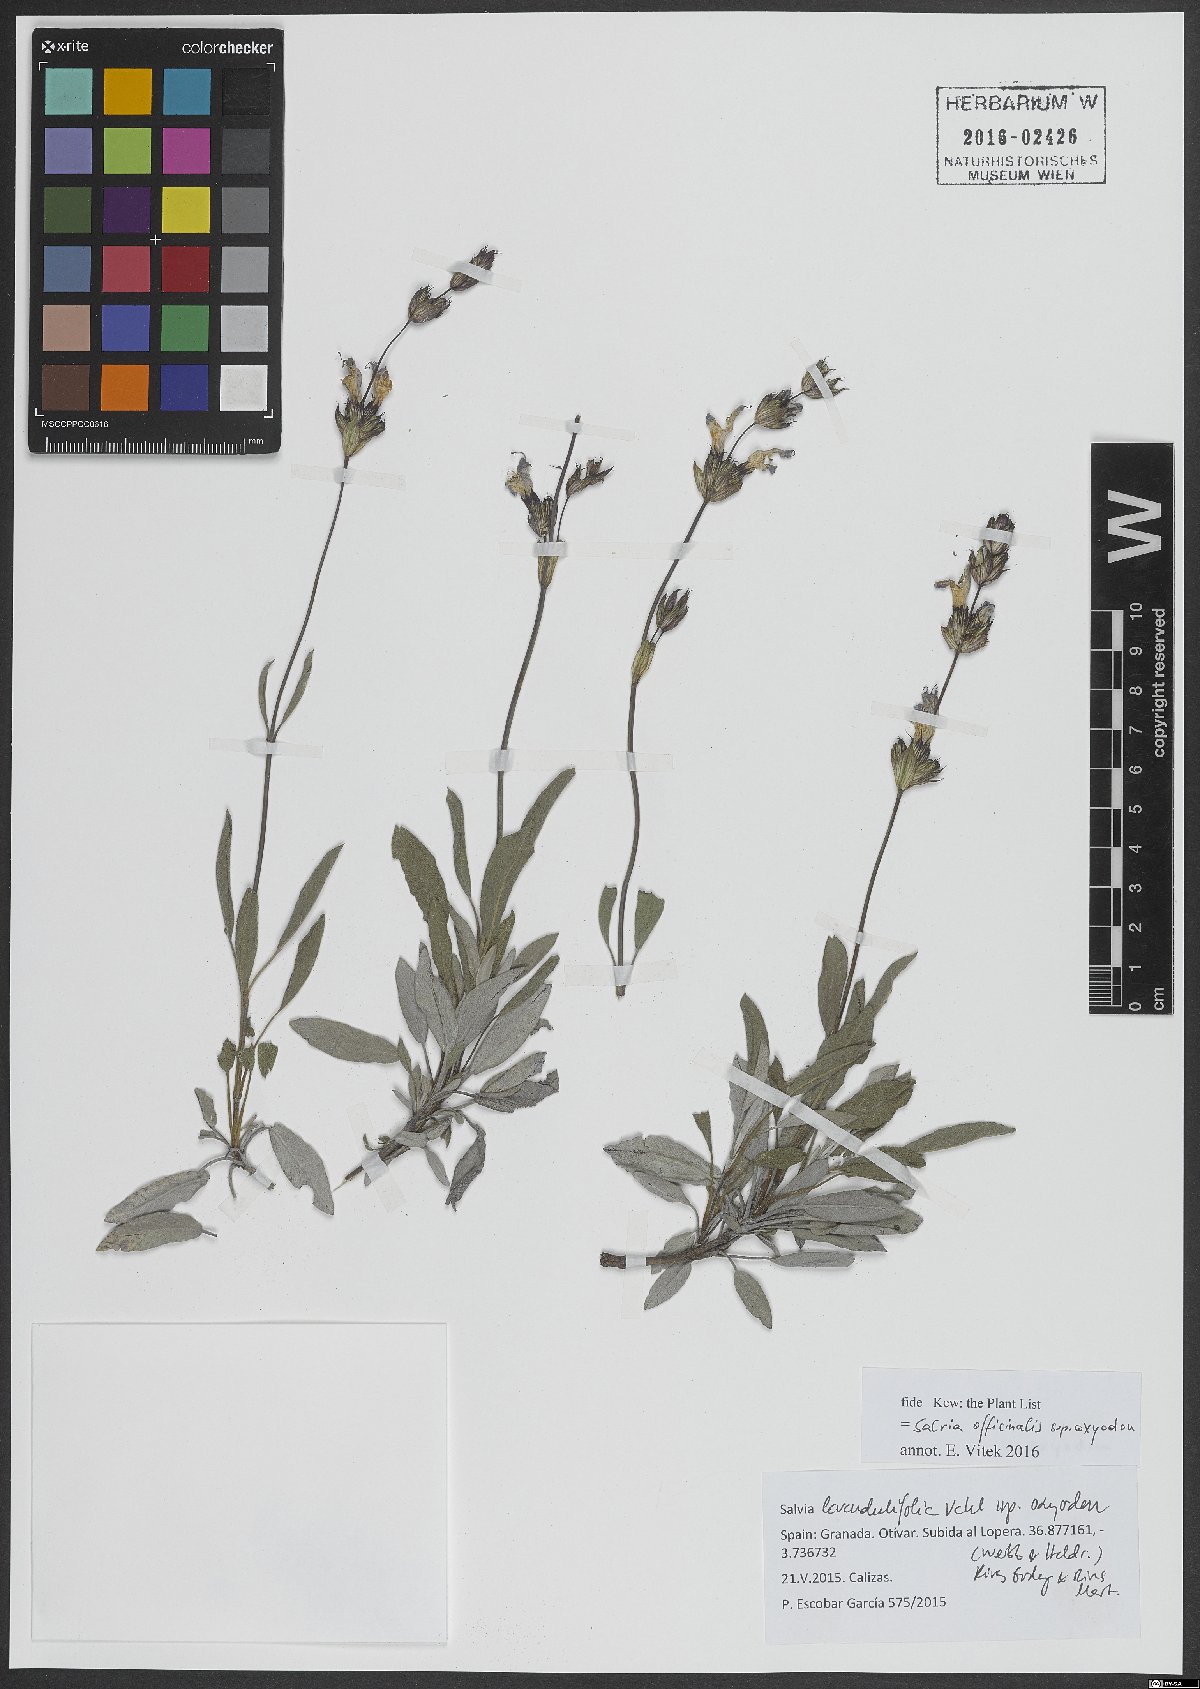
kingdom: Plantae
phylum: Tracheophyta
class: Magnoliopsida
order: Lamiales
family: Lamiaceae
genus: Salvia
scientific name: Salvia officinalis
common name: Sage
